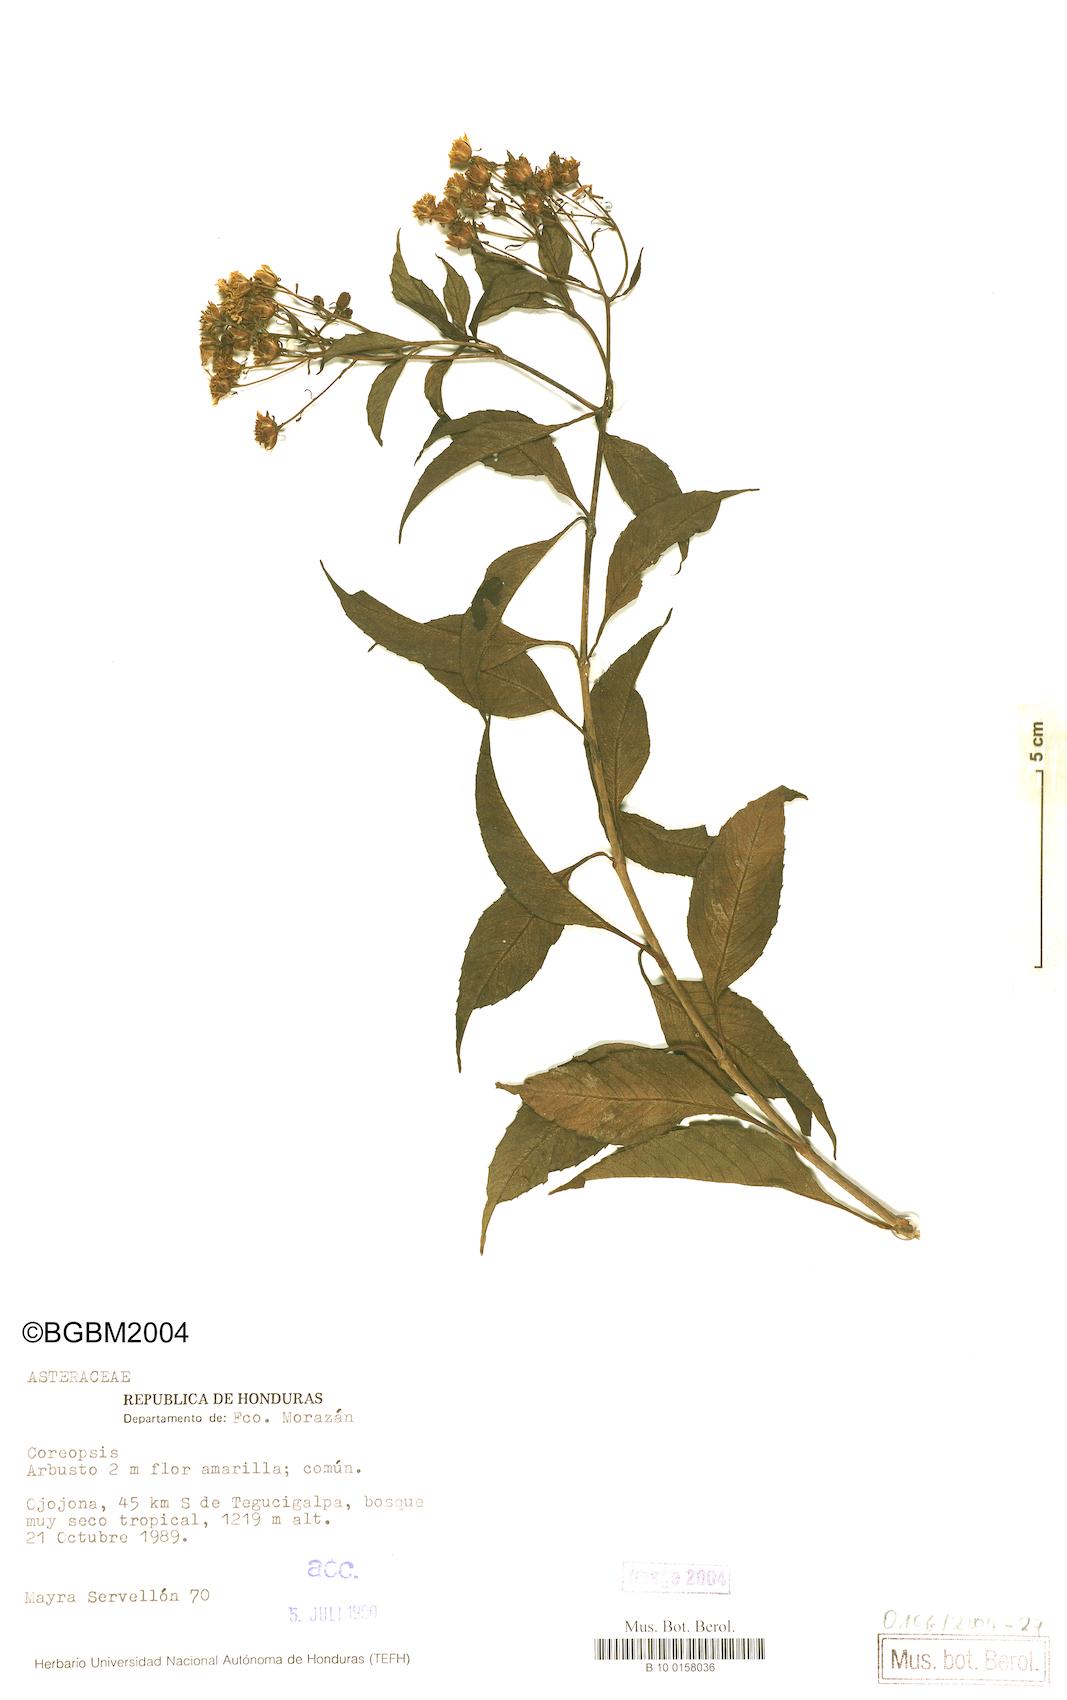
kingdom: Plantae
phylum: Tracheophyta
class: Magnoliopsida
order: Asterales
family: Asteraceae
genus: Coreopsis
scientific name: Coreopsis
